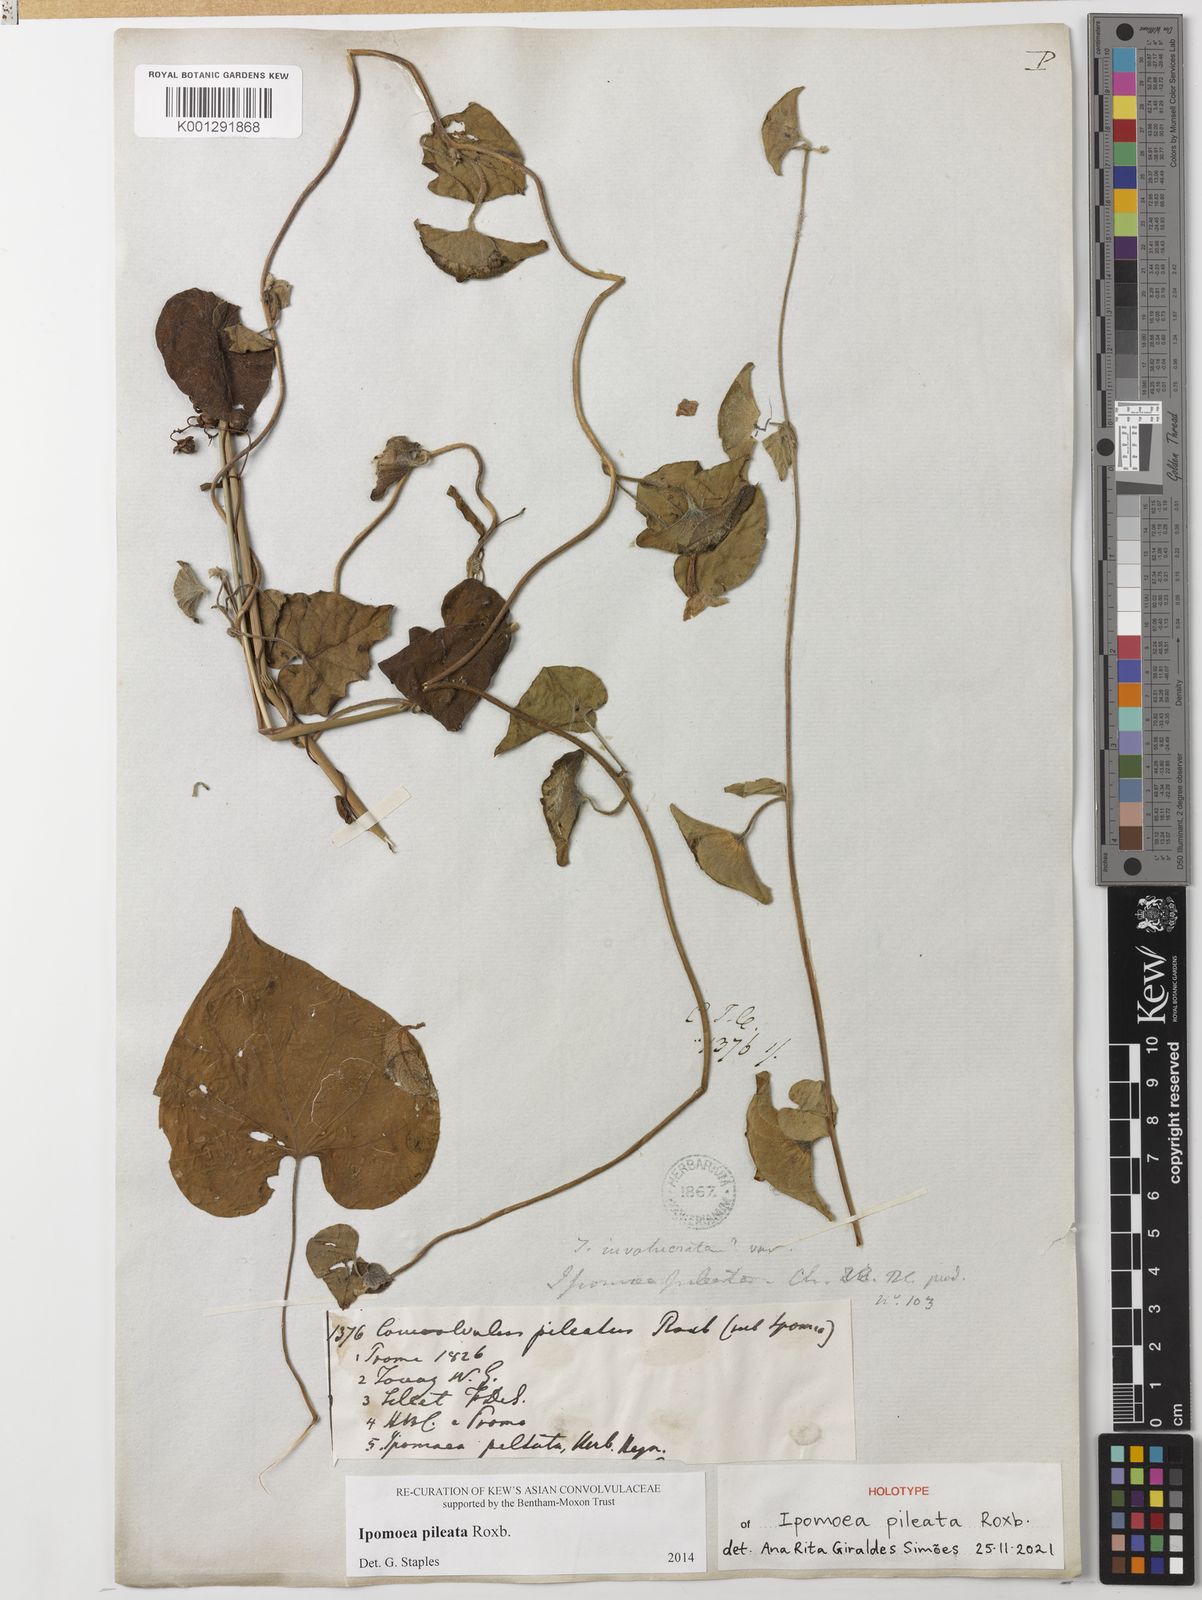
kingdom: Plantae
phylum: Tracheophyta
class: Magnoliopsida
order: Solanales
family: Convolvulaceae
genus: Ipomoea
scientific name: Ipomoea pileata
